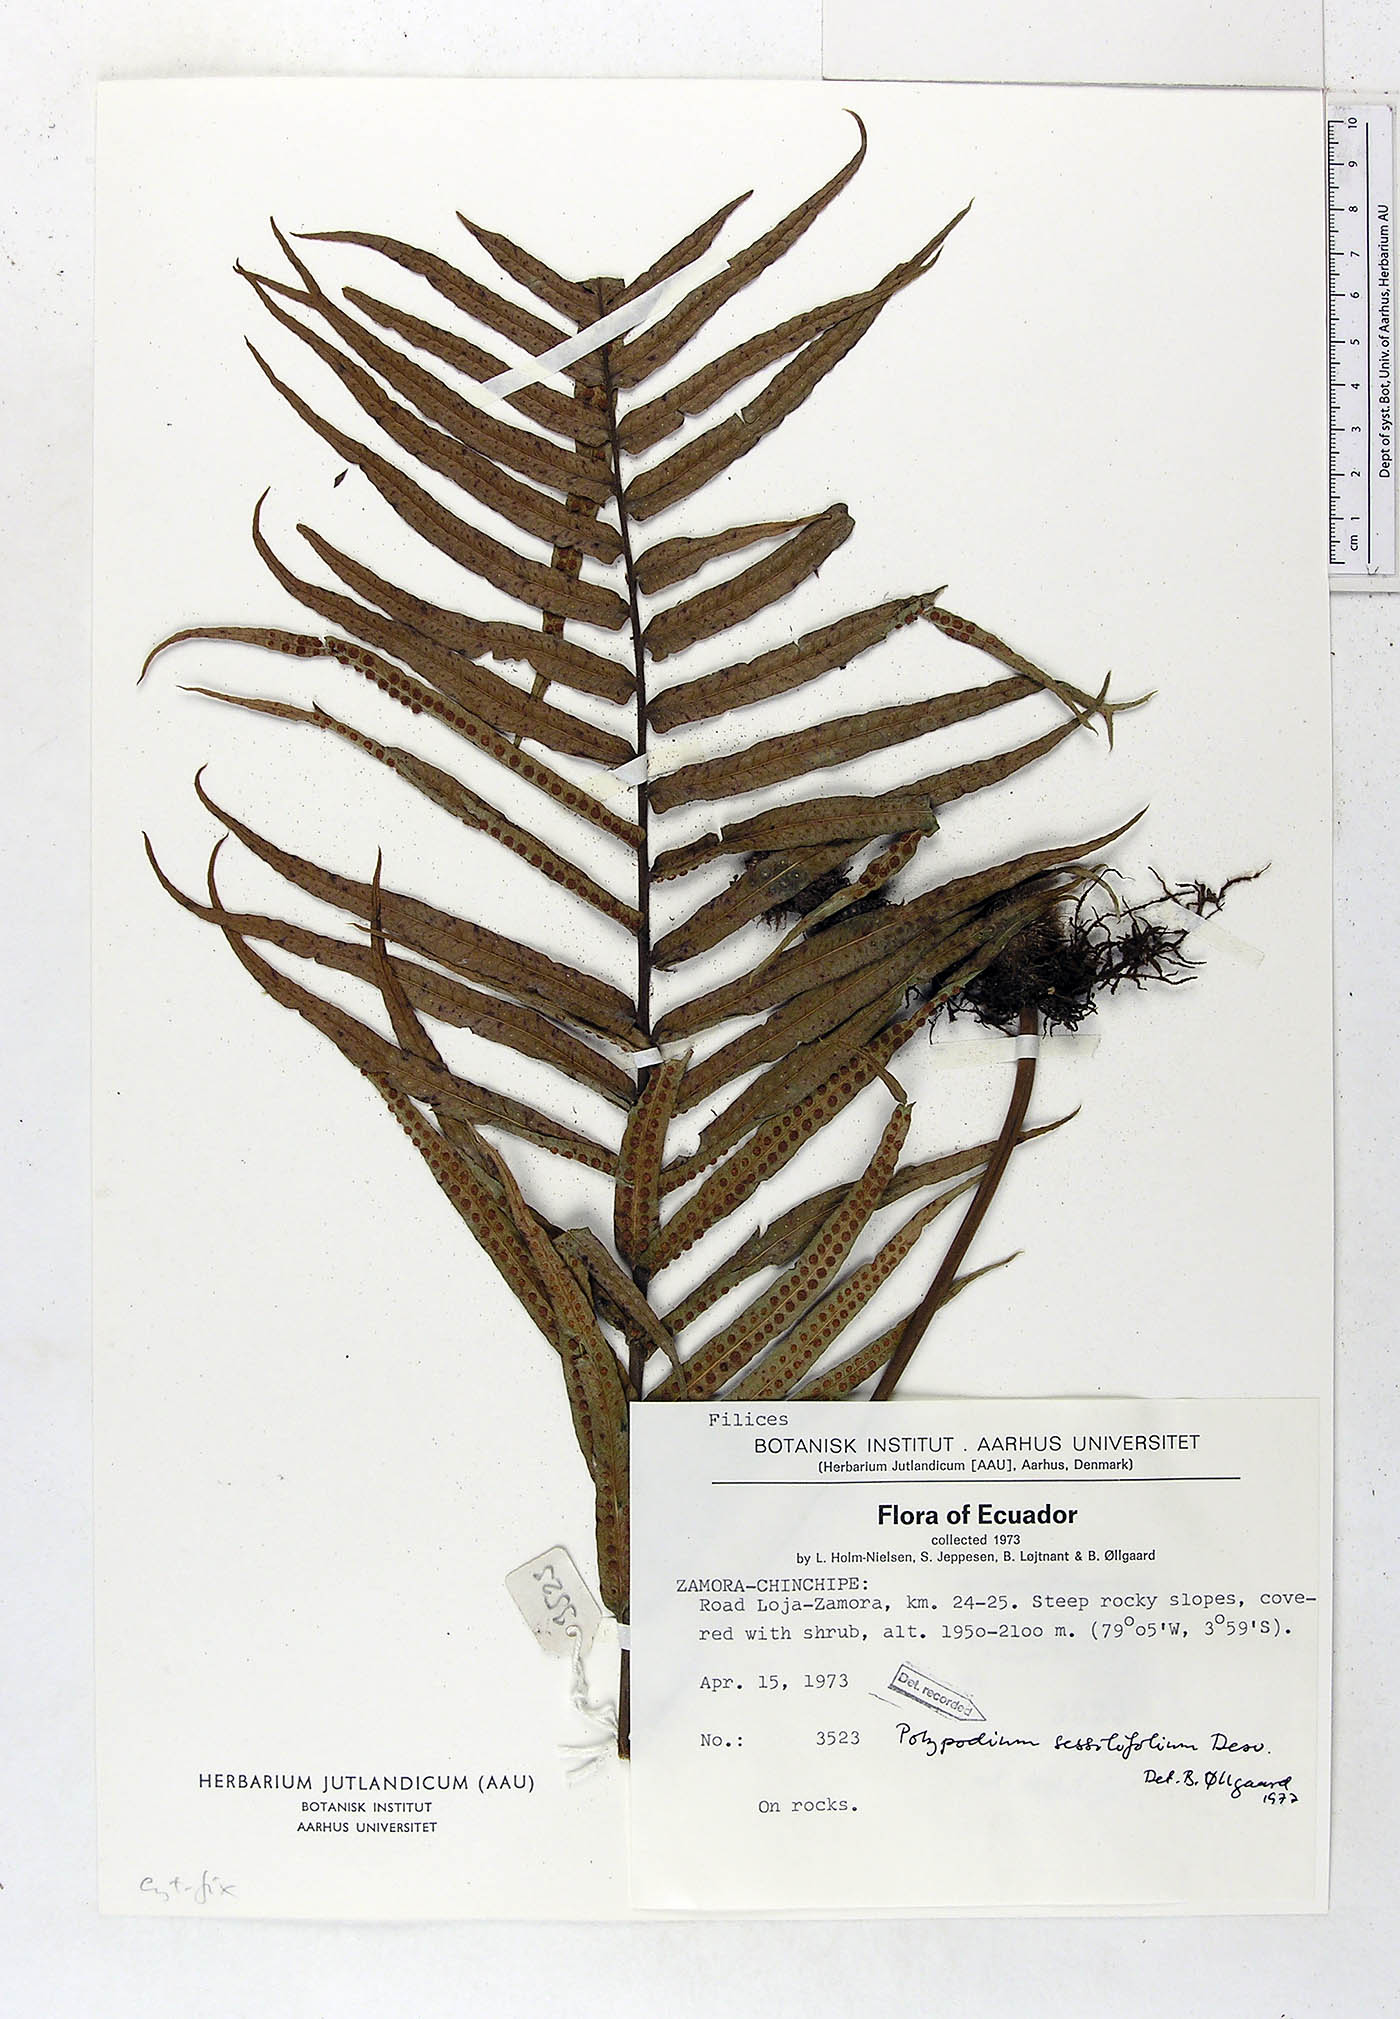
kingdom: Plantae
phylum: Tracheophyta
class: Polypodiopsida
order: Polypodiales
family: Polypodiaceae
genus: Serpocaulon
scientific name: Serpocaulon sessilifolium
